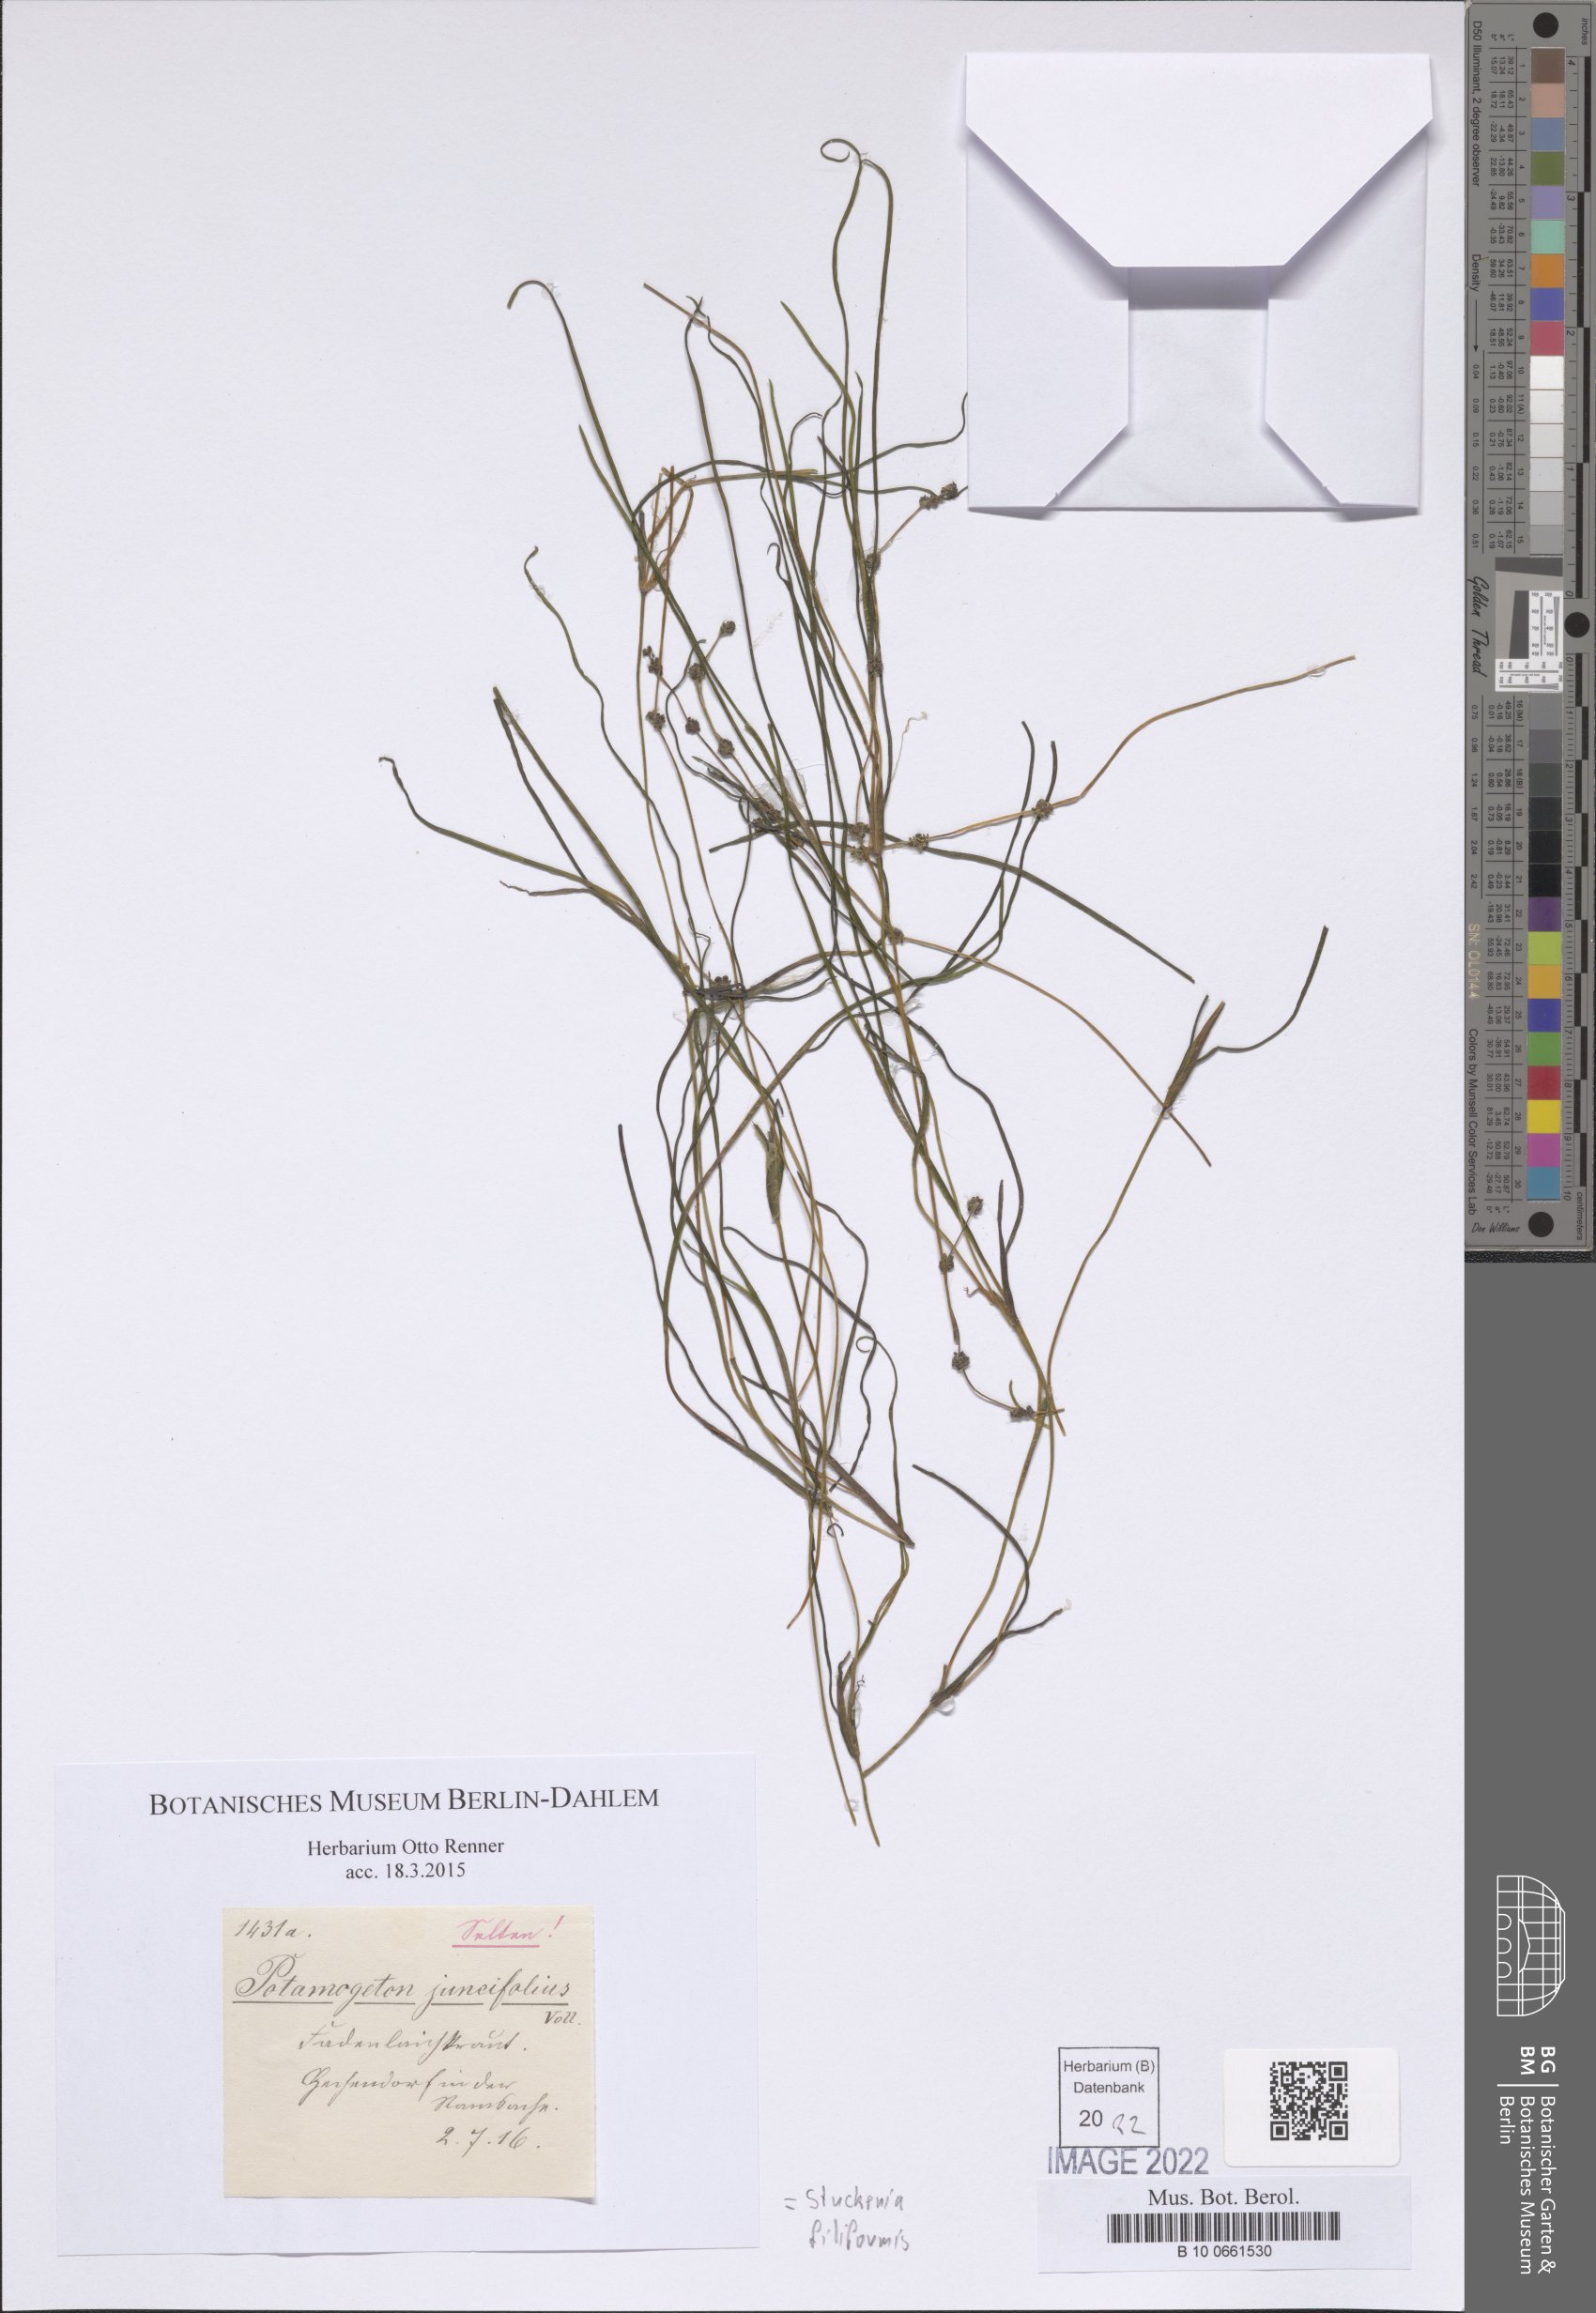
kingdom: Plantae
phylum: Tracheophyta
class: Liliopsida
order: Alismatales
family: Potamogetonaceae
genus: Stuckenia
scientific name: Stuckenia filiformis
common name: Alpine thread-leaved pondweed
